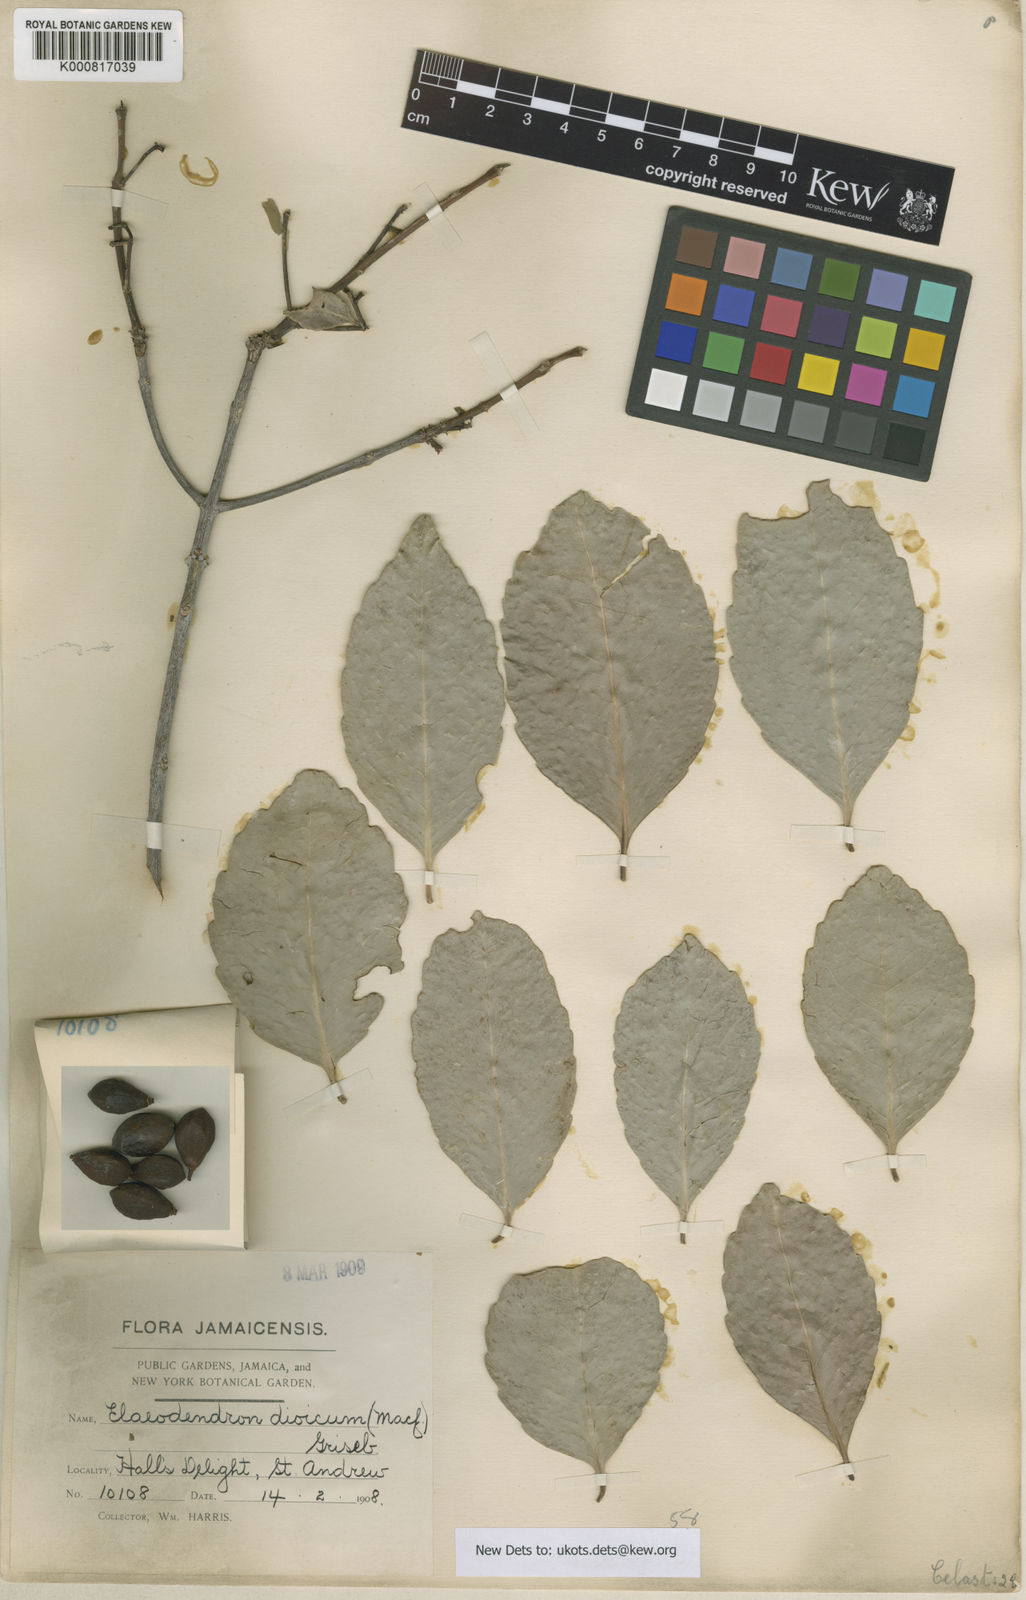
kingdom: Plantae
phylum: Tracheophyta
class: Magnoliopsida
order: Celastrales
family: Celastraceae
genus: Elaeodendron
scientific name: Elaeodendron
